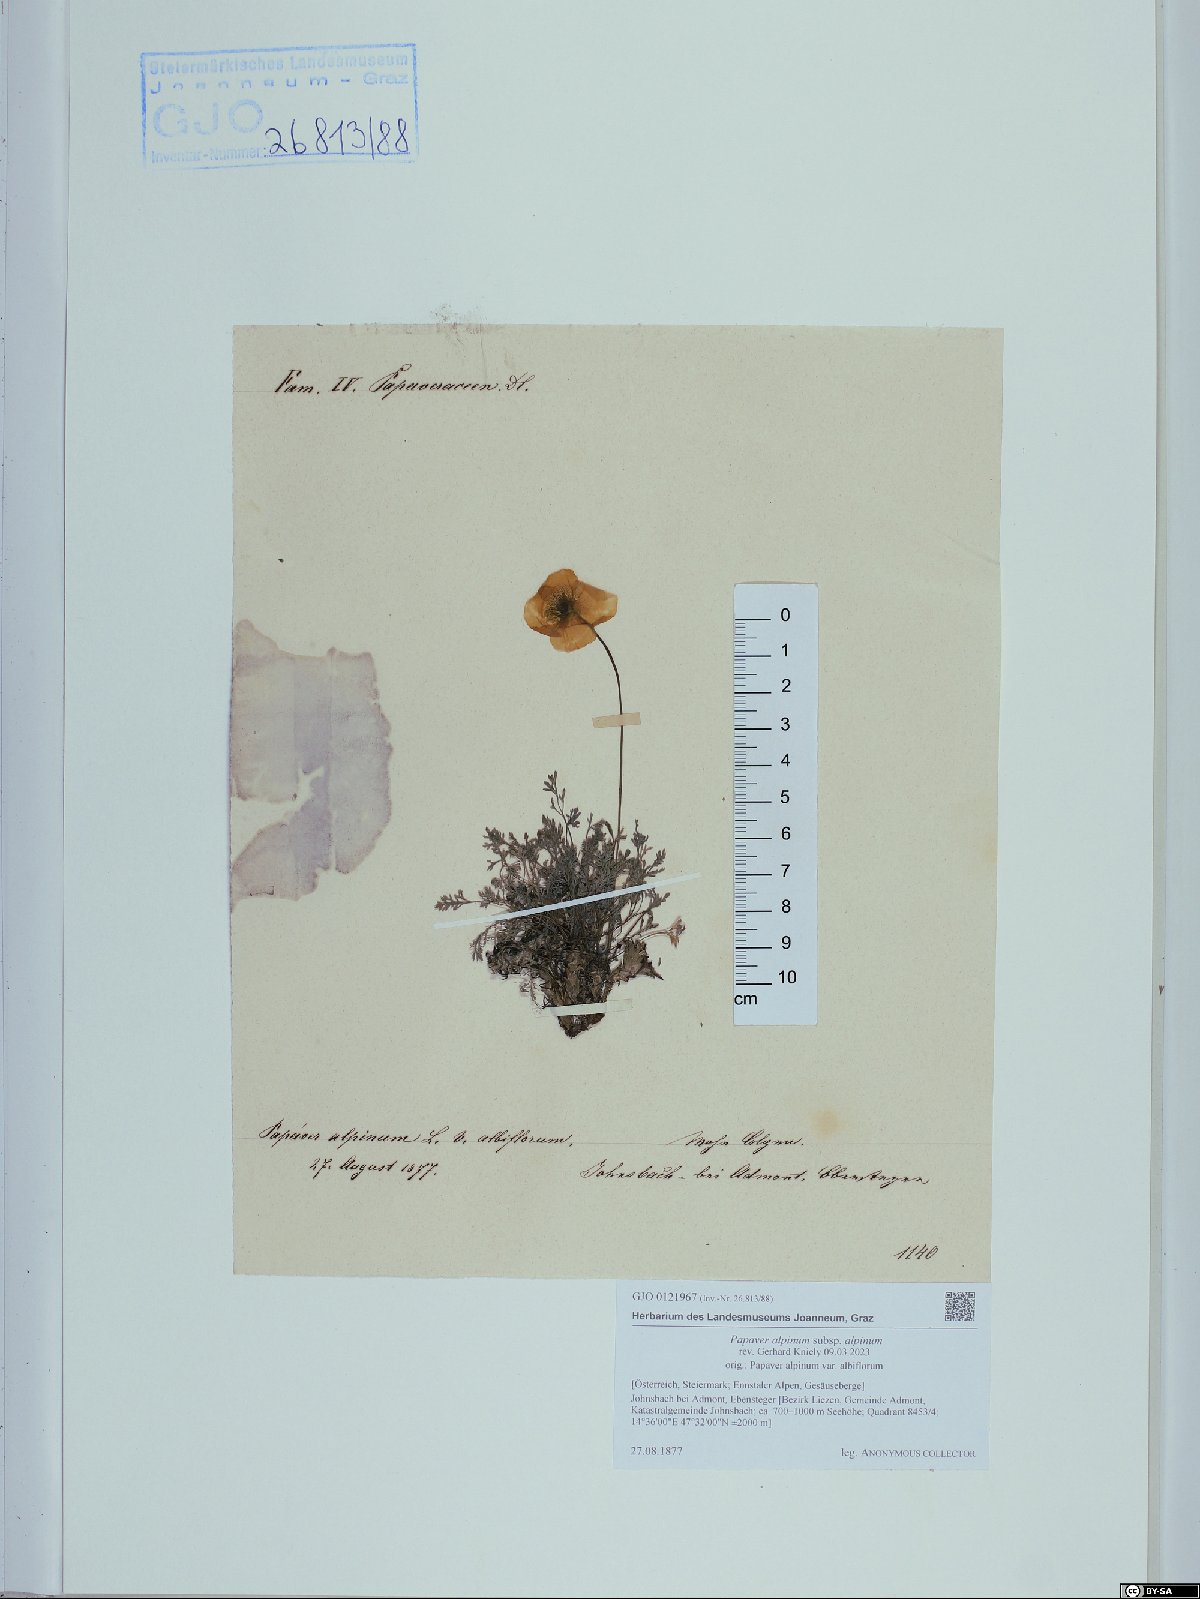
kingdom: Plantae
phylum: Tracheophyta
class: Magnoliopsida
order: Ranunculales
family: Papaveraceae
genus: Papaver
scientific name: Papaver alpinum
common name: Austrian poppy
